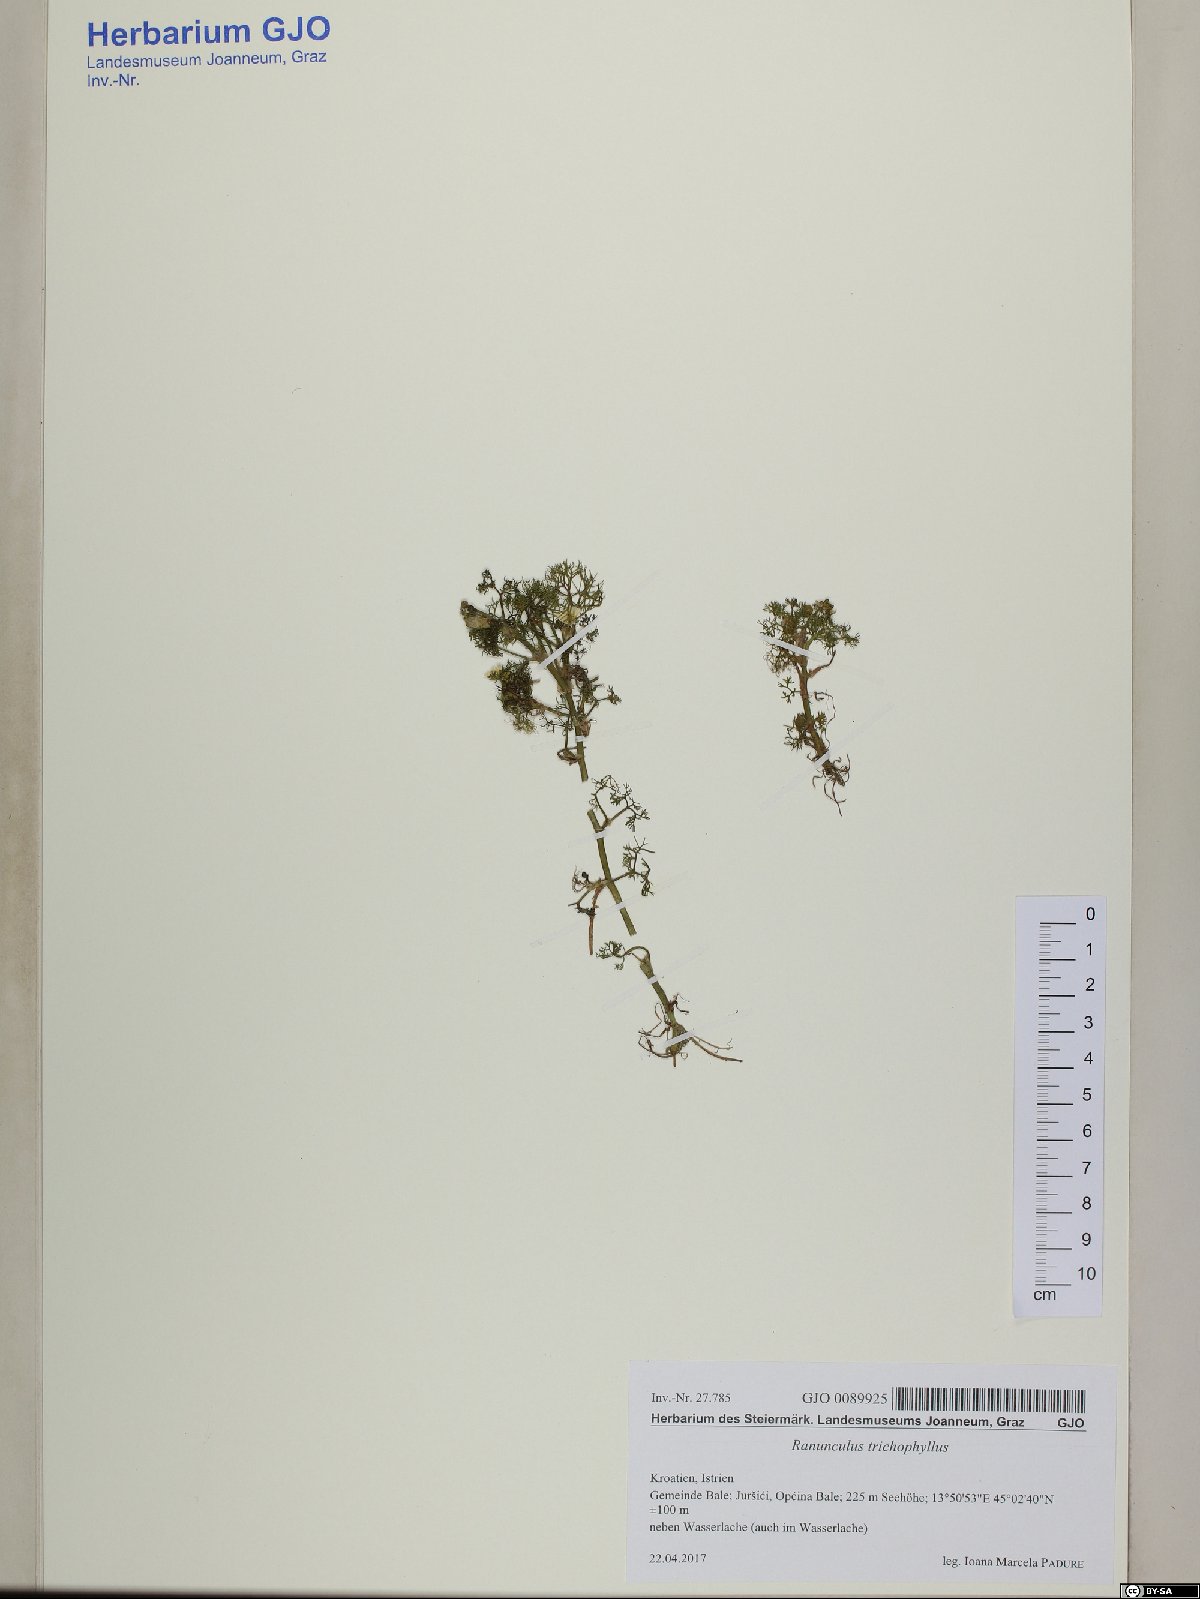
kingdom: Plantae
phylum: Tracheophyta
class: Magnoliopsida
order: Ranunculales
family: Ranunculaceae
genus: Ranunculus
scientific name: Ranunculus trichophyllus
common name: Thread-leaved water-crowfoot
